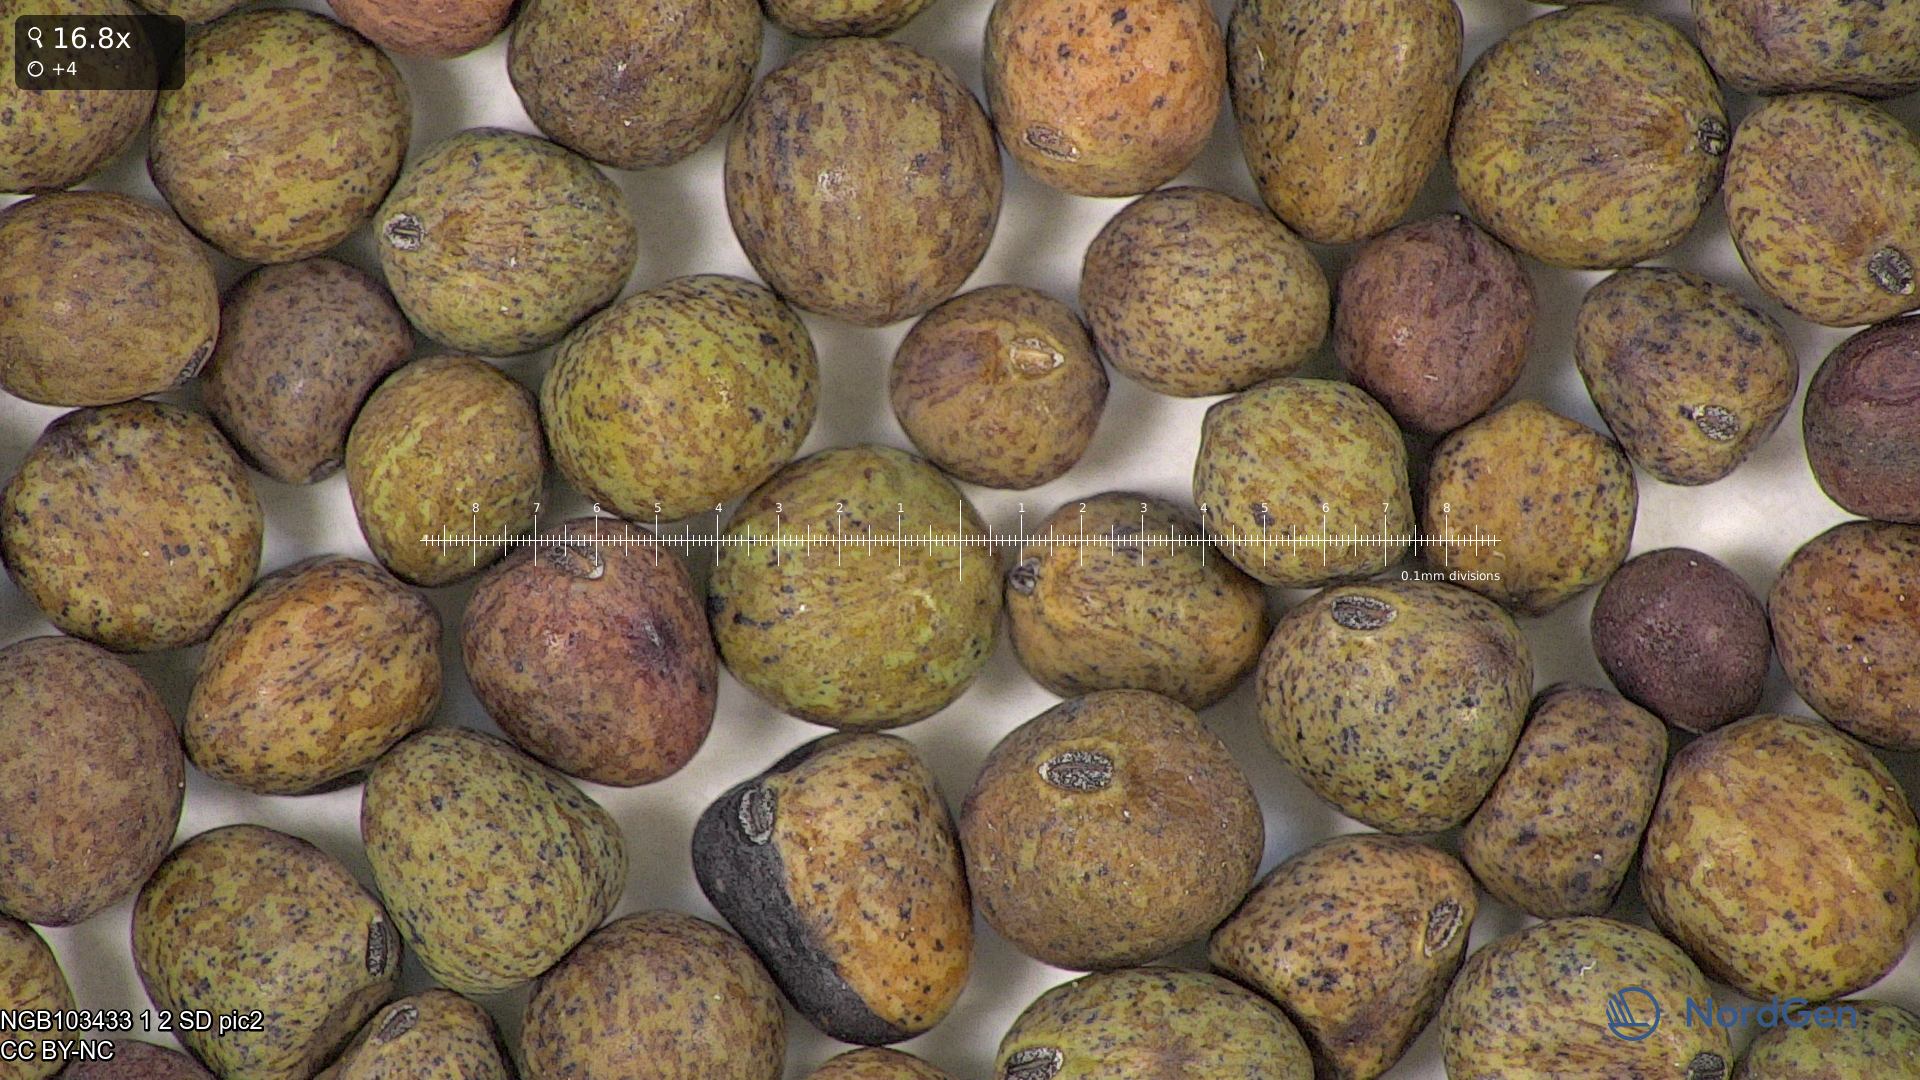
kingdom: Plantae
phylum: Tracheophyta
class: Magnoliopsida
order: Fabales
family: Fabaceae
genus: Lathyrus
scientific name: Lathyrus oleraceus
